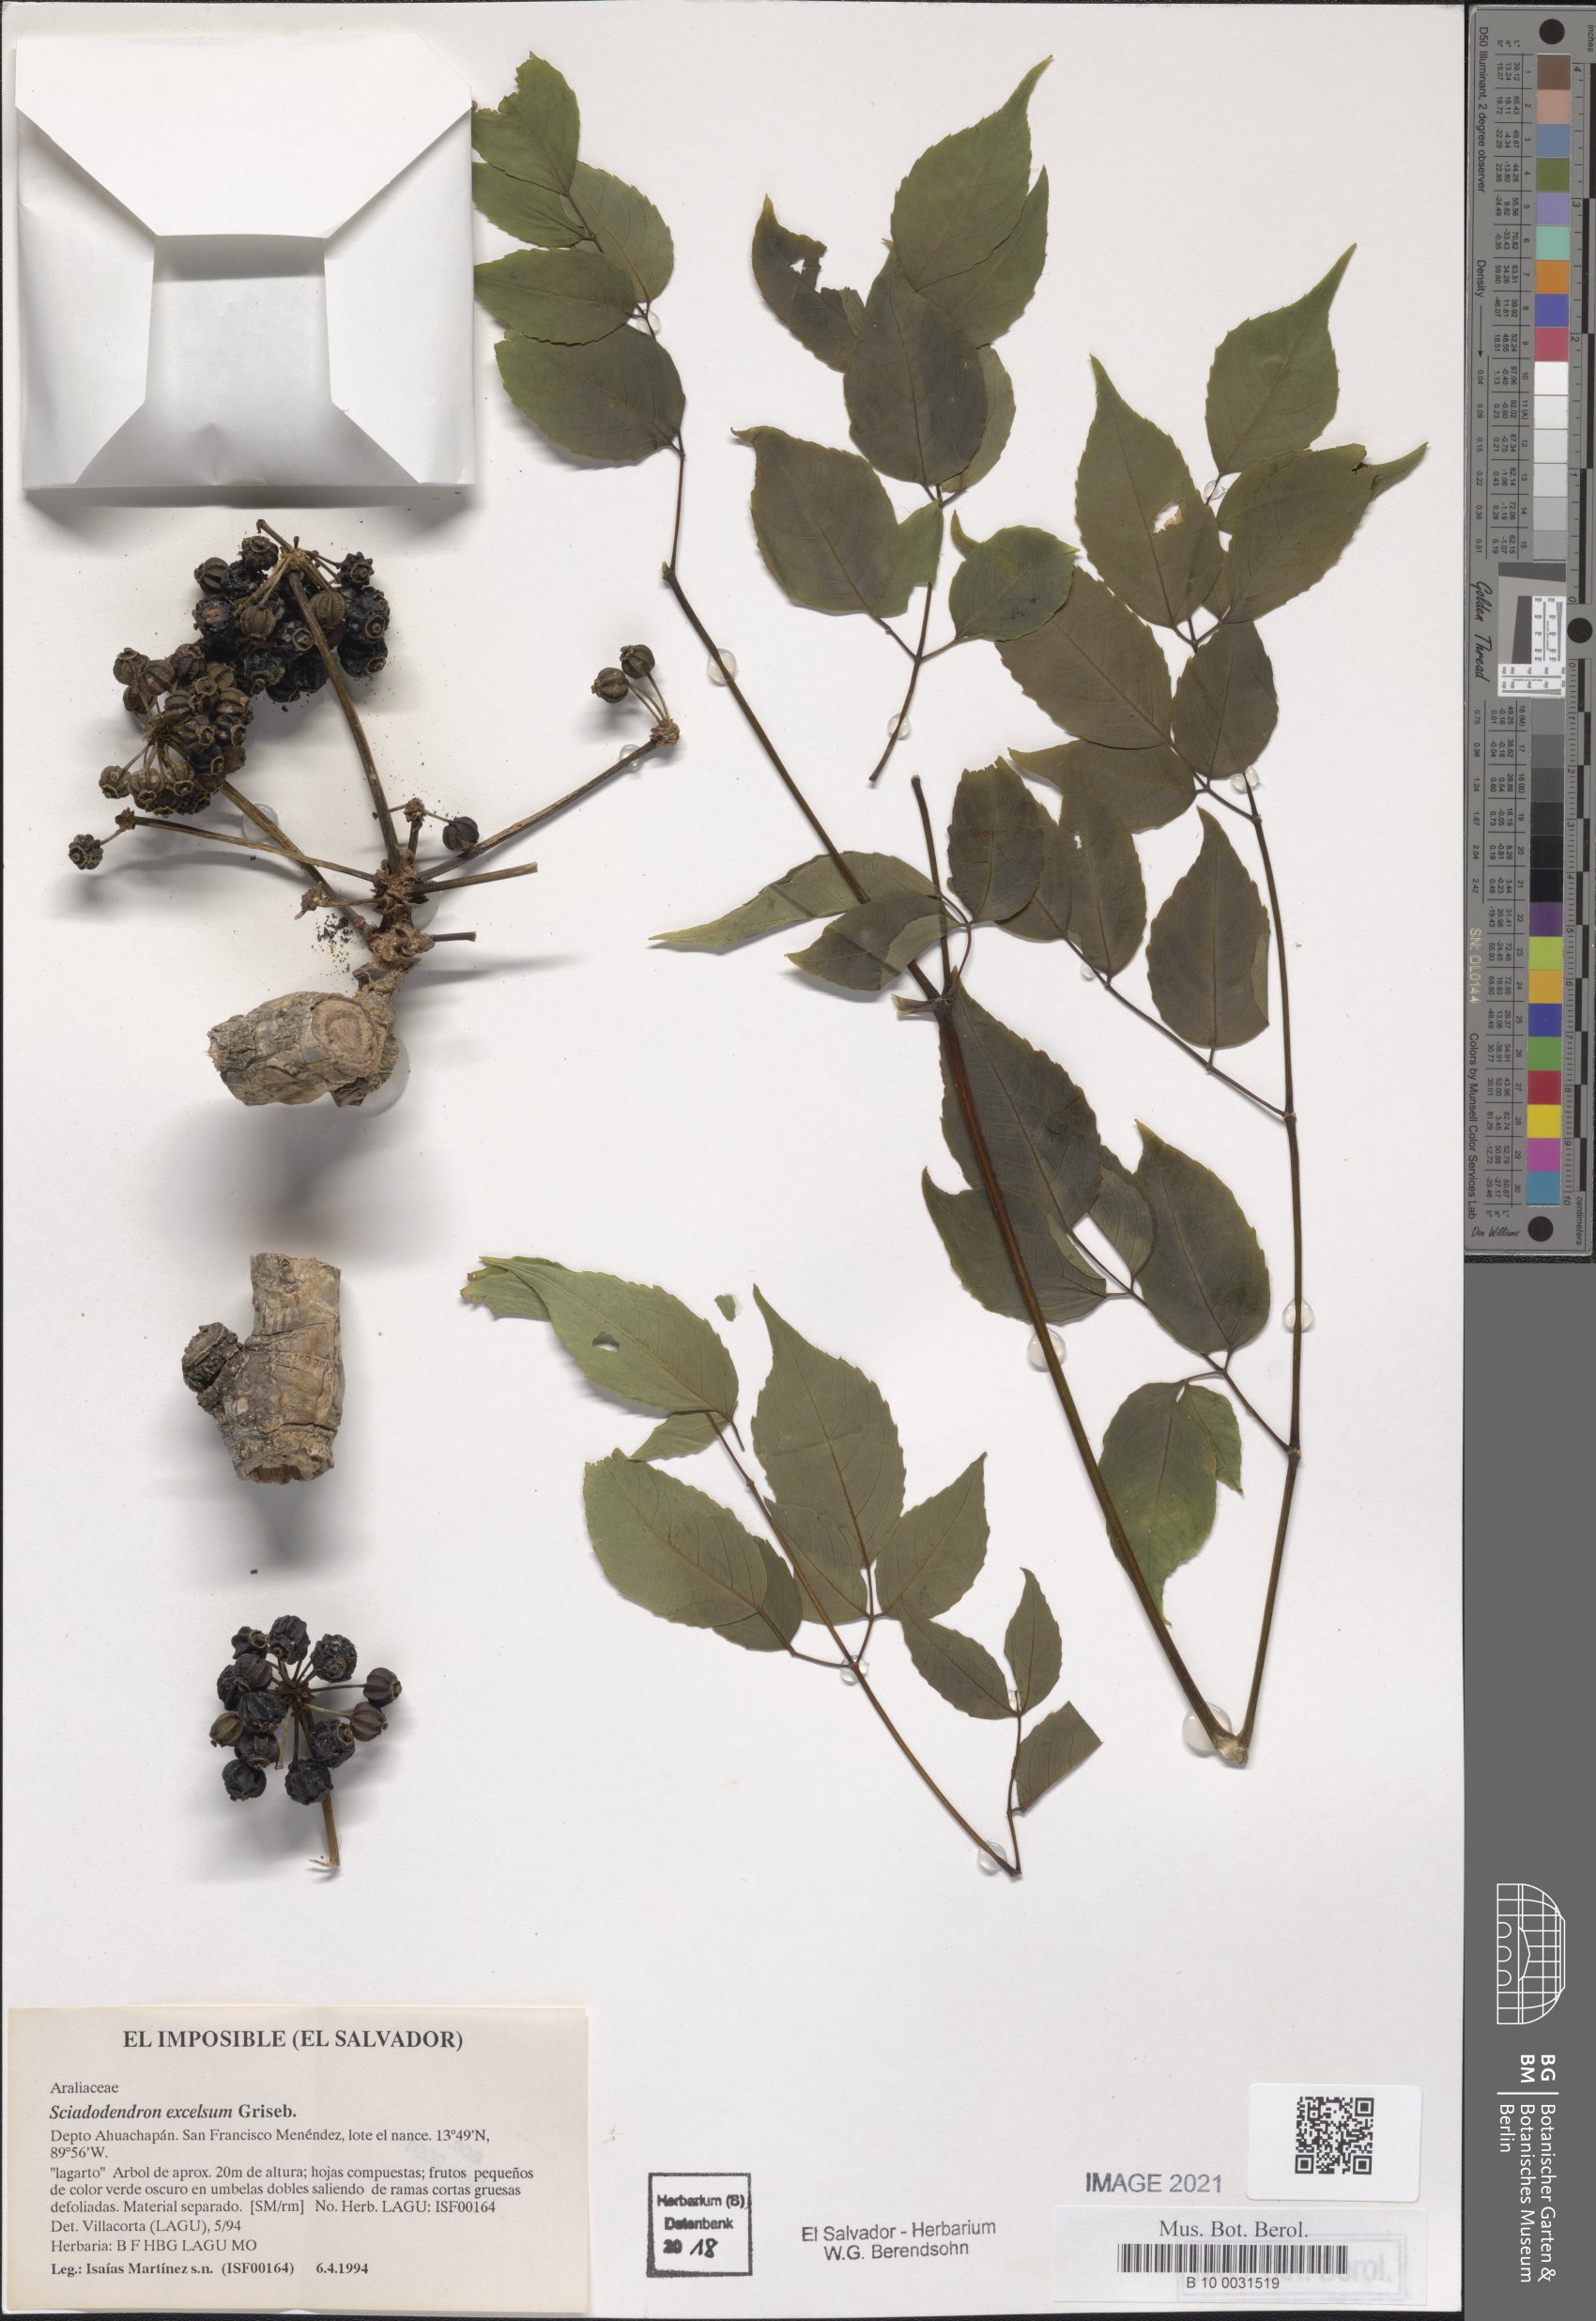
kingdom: Plantae
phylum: Tracheophyta
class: Magnoliopsida
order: Apiales
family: Araliaceae
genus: Aralia
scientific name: Aralia excelsa
